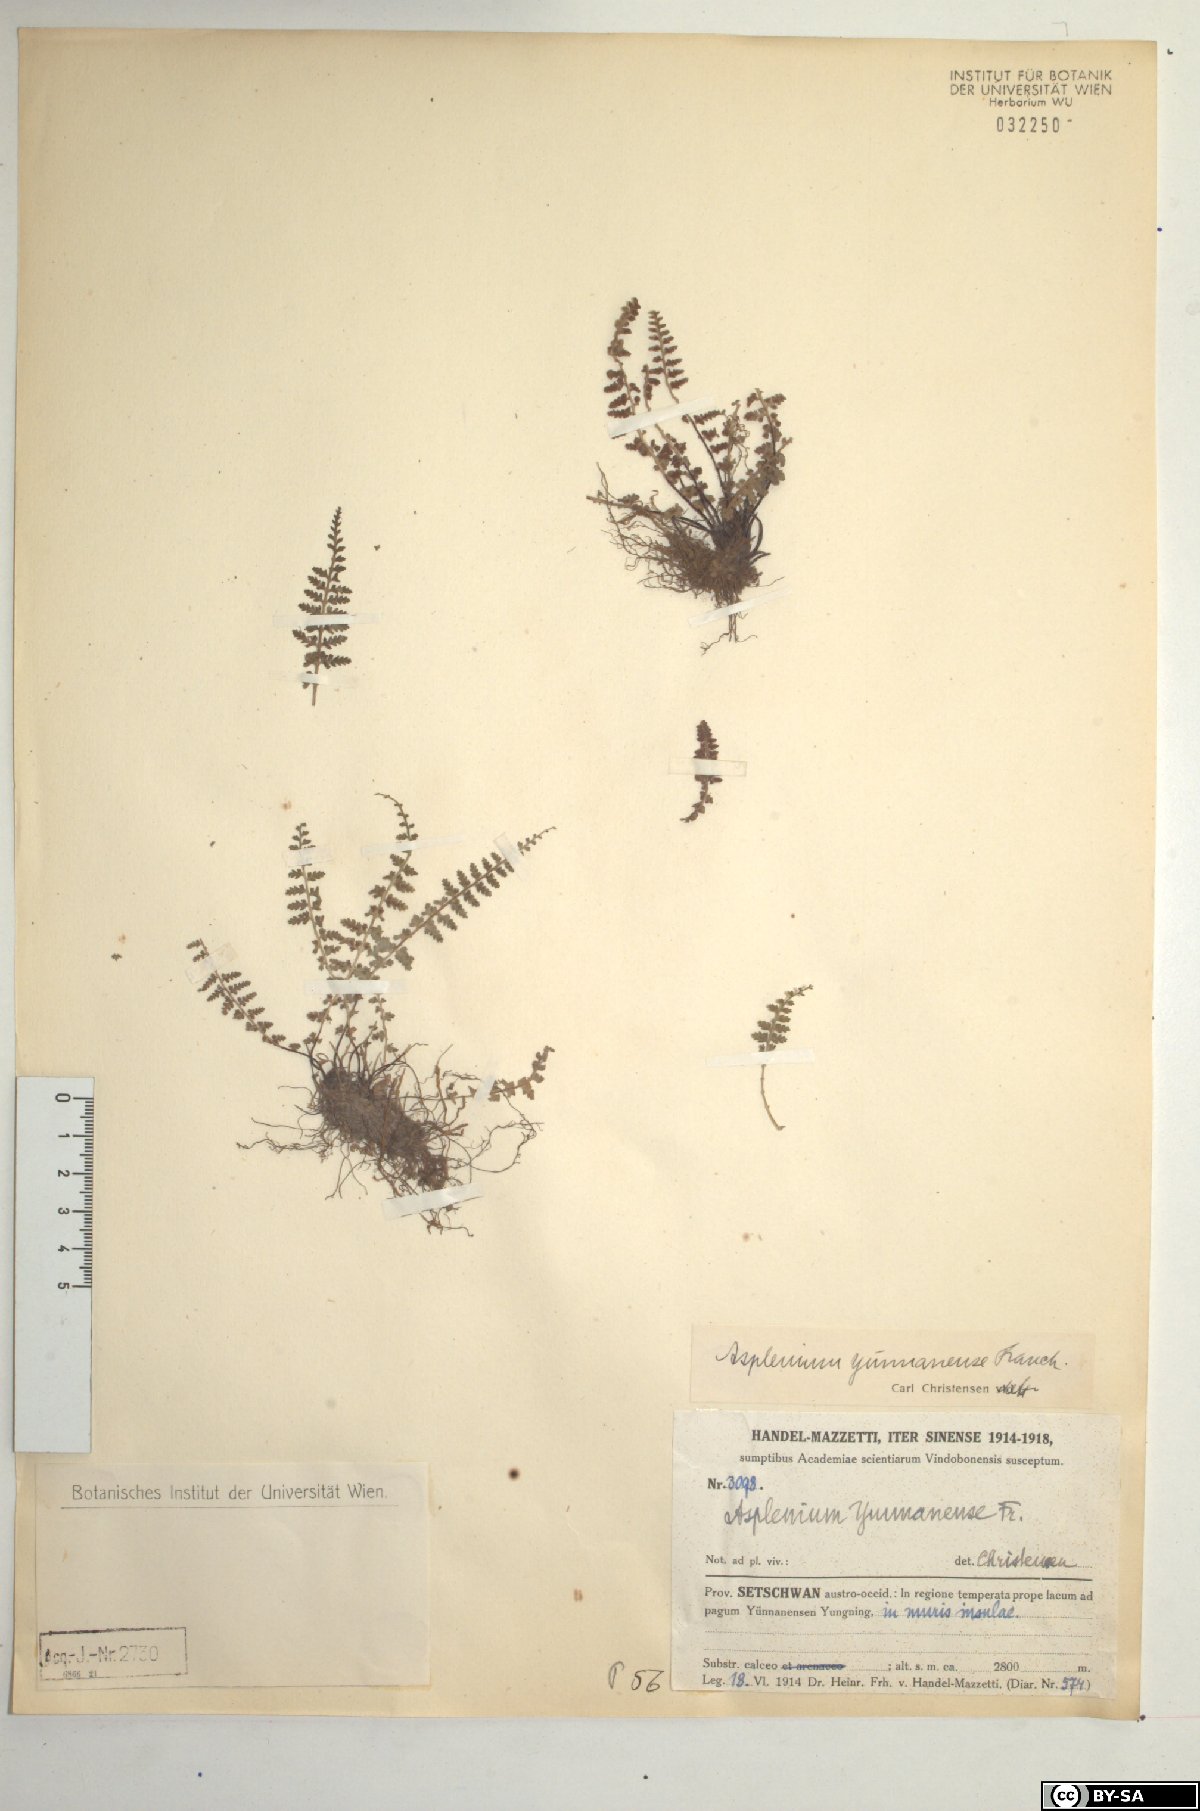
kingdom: Plantae
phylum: Tracheophyta
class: Polypodiopsida
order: Polypodiales
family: Aspleniaceae
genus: Asplenium
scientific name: Asplenium exiguum
